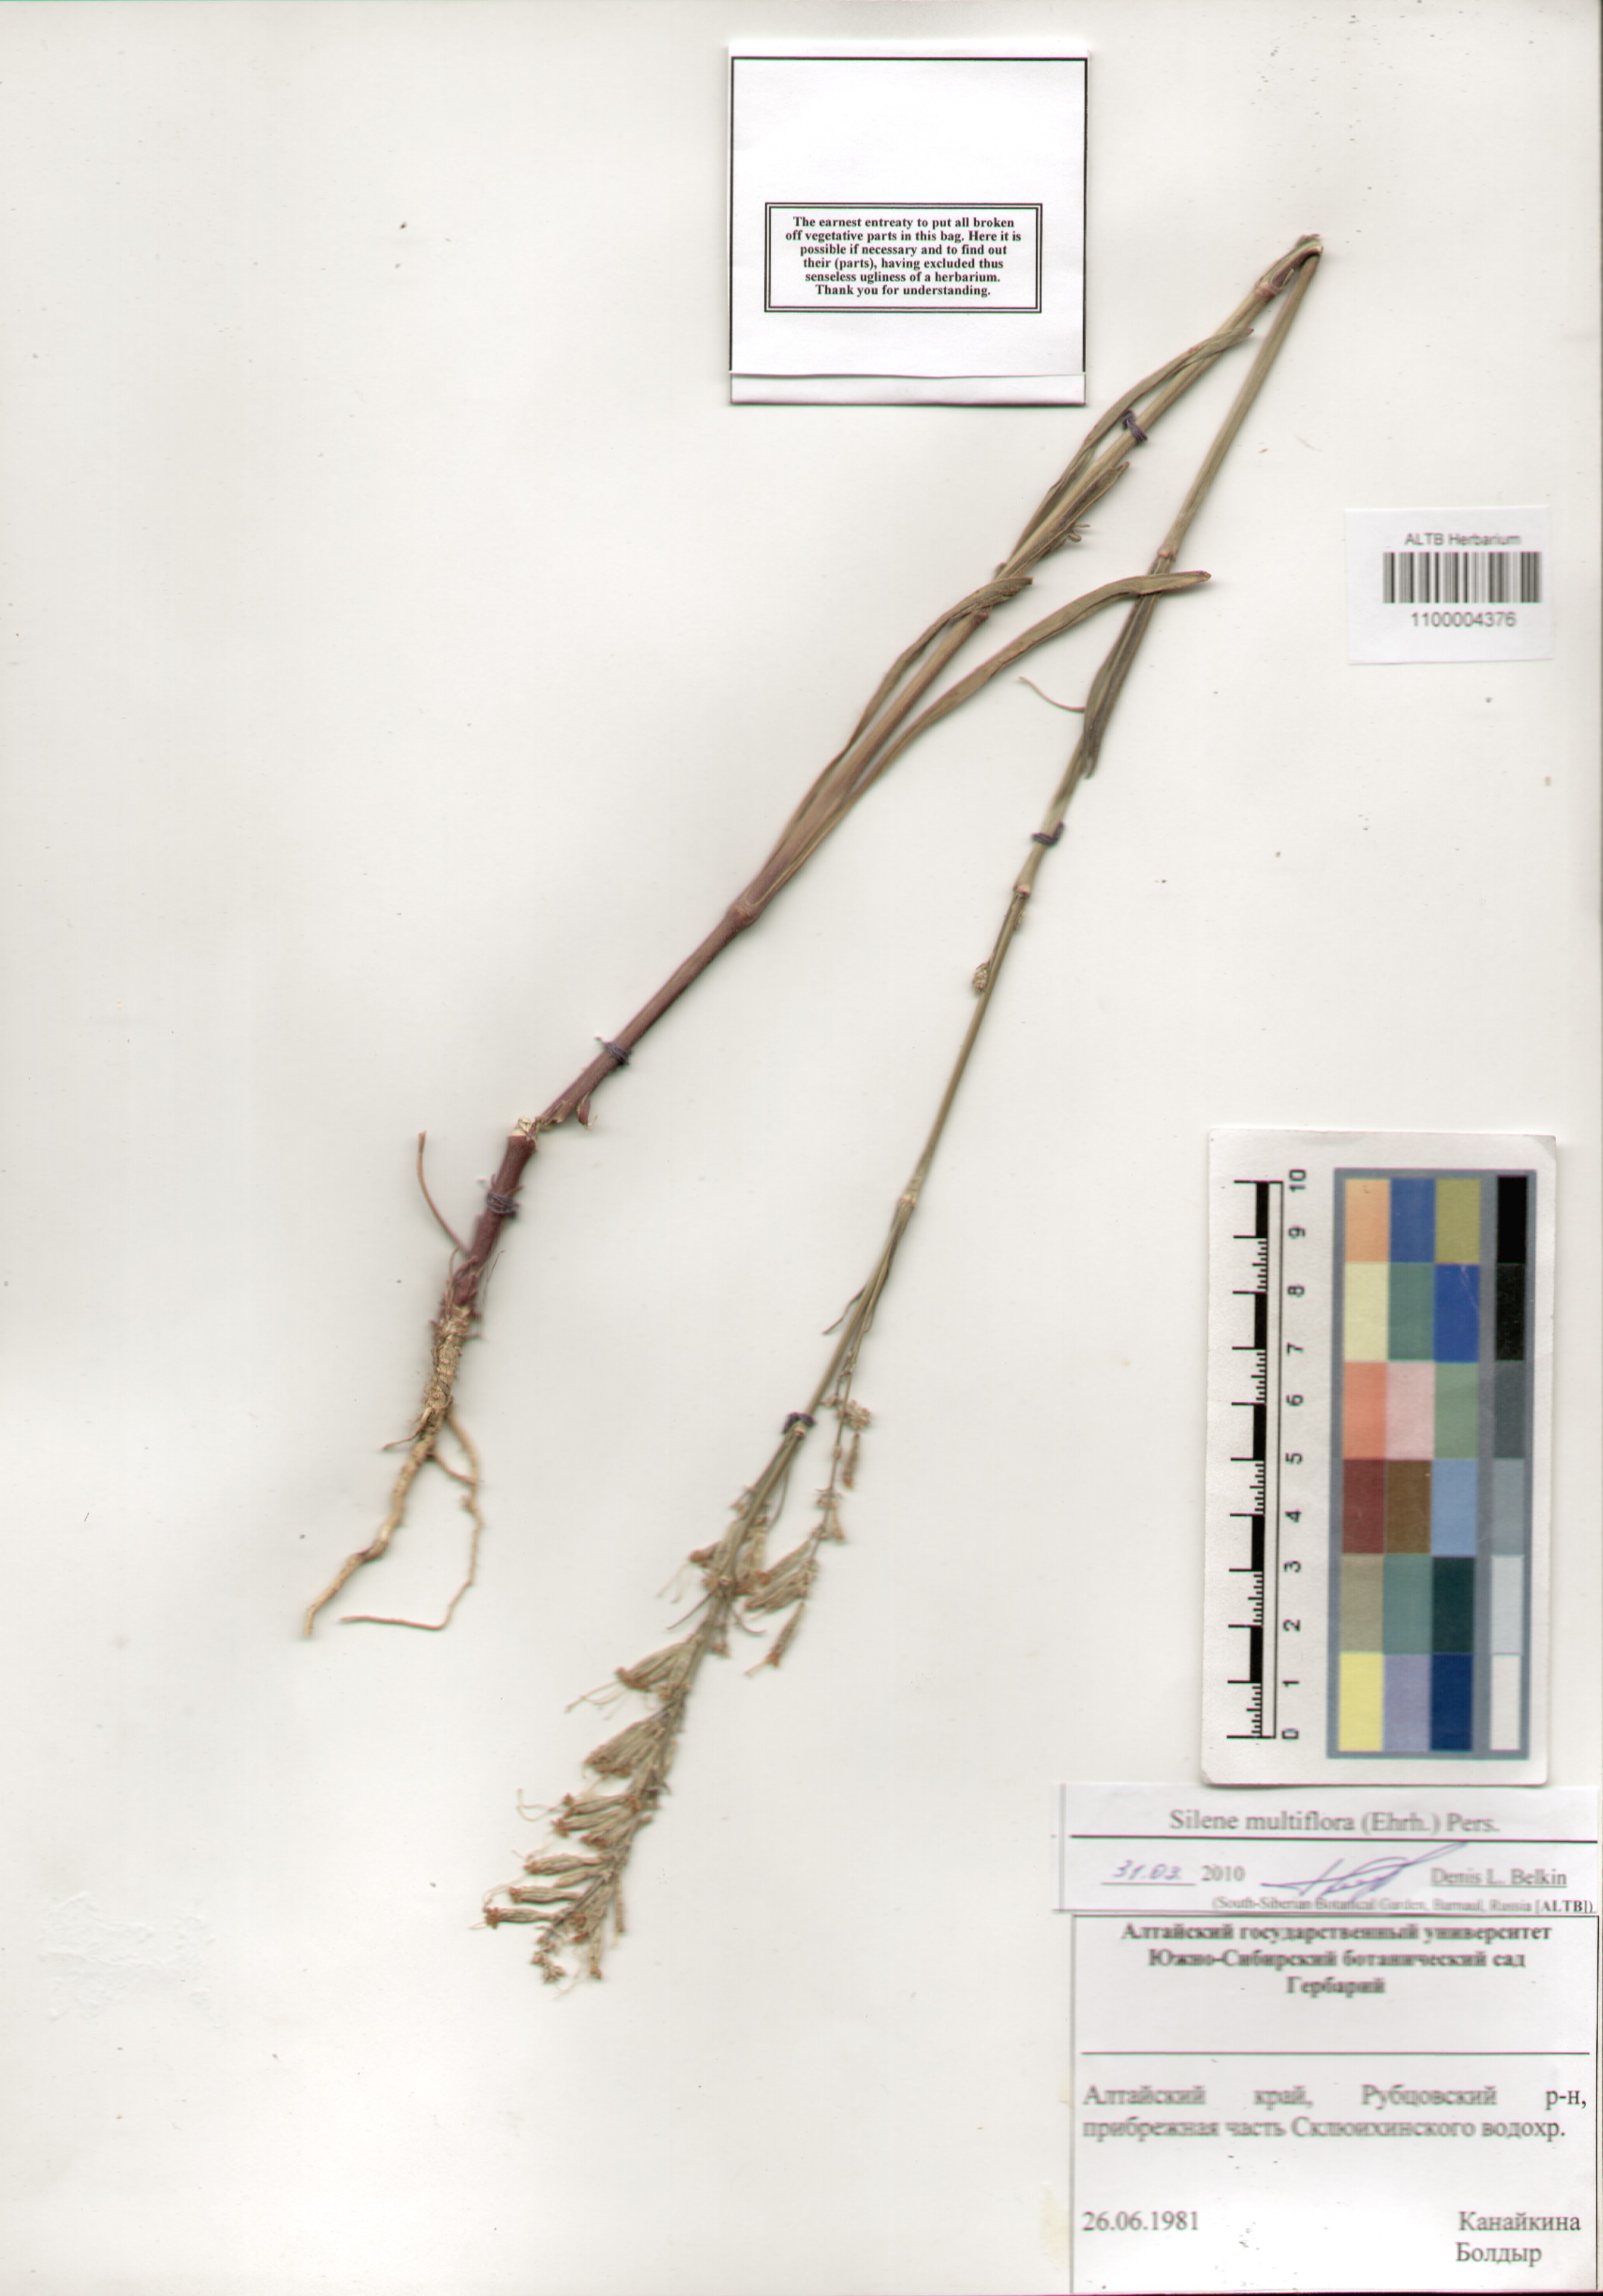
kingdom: Plantae
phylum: Tracheophyta
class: Magnoliopsida
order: Caryophyllales
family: Caryophyllaceae
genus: Silene
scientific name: Silene multiflora
